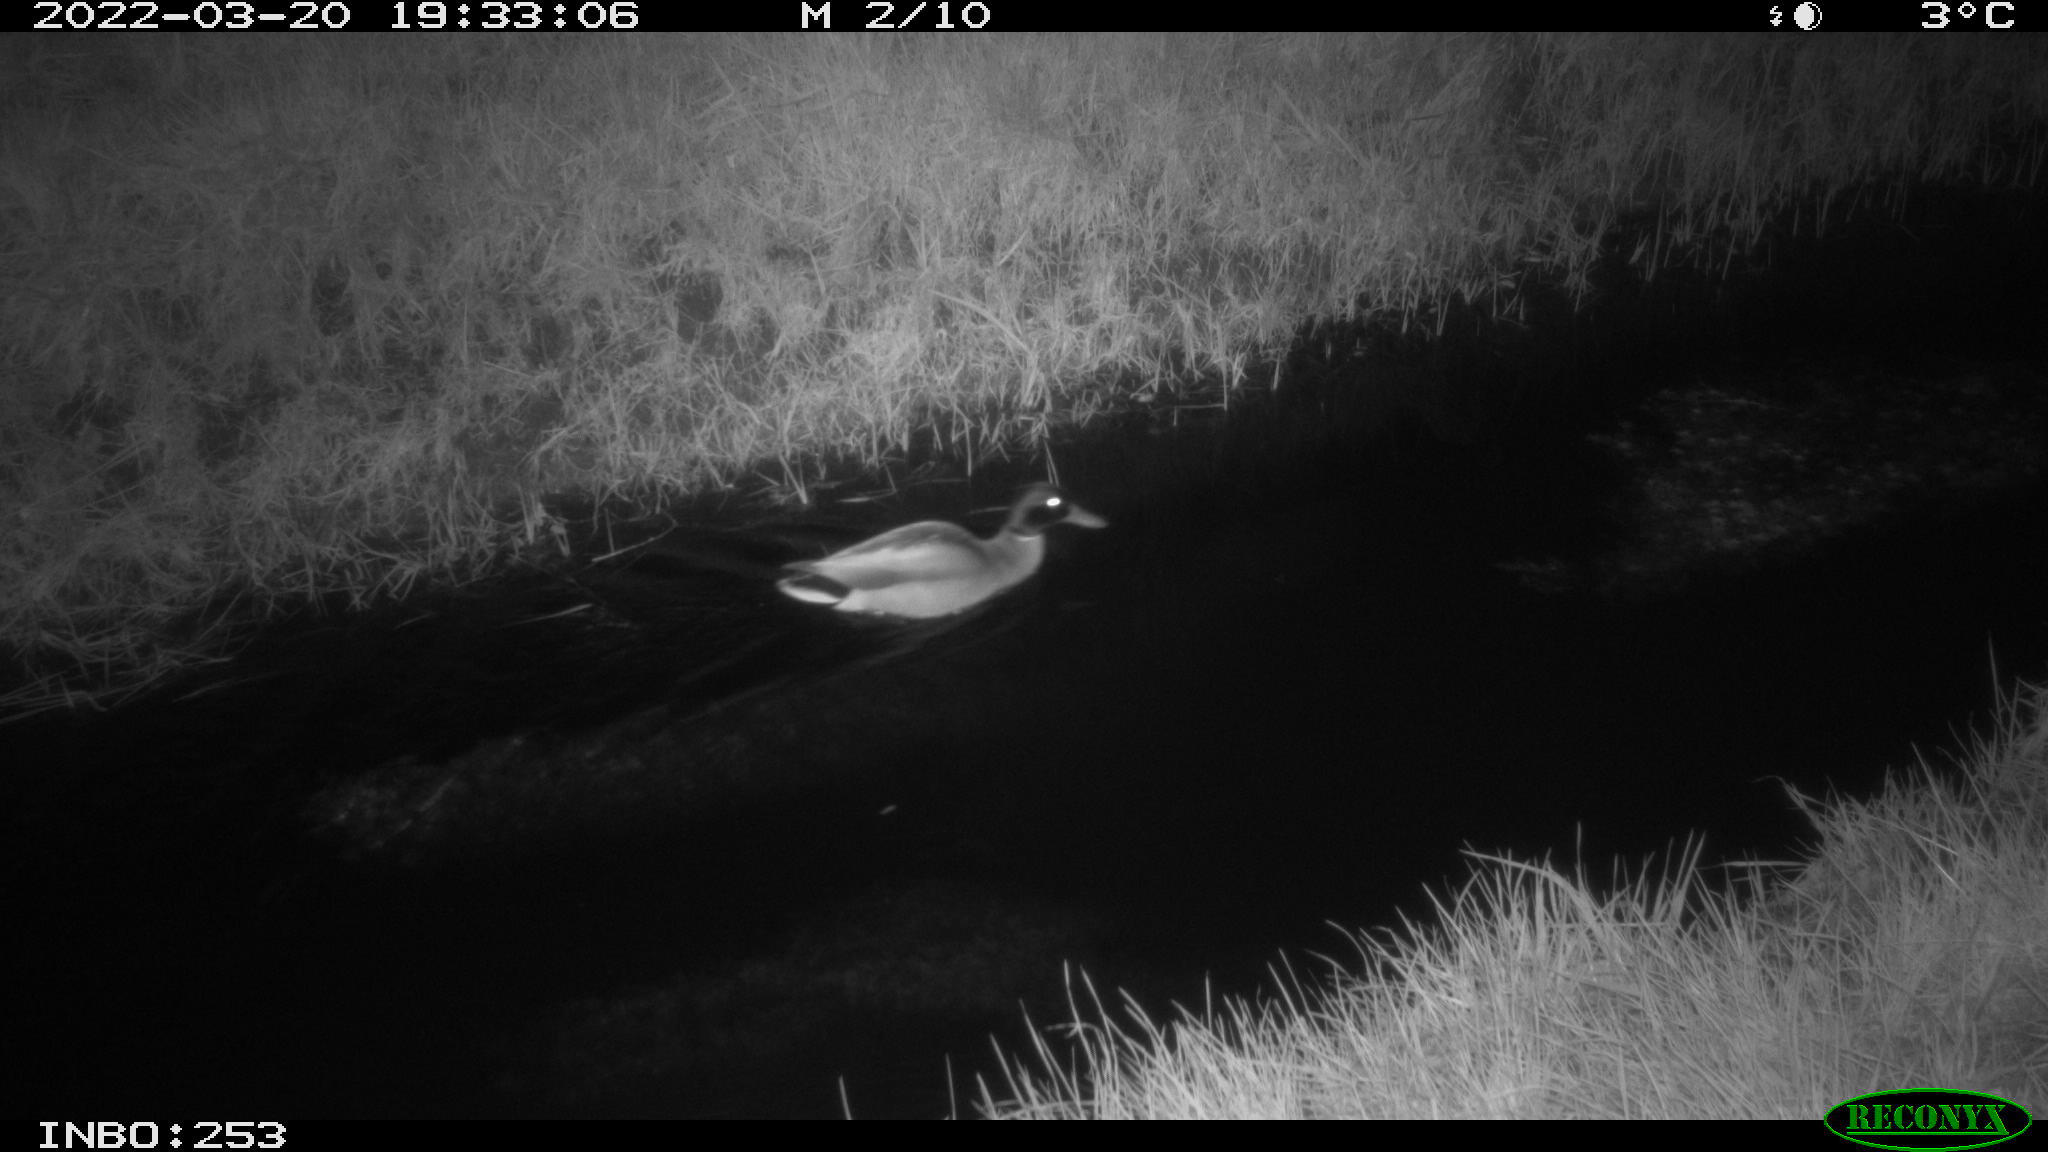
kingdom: Animalia
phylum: Chordata
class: Aves
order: Anseriformes
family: Anatidae
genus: Anas
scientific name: Anas platyrhynchos
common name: Mallard
